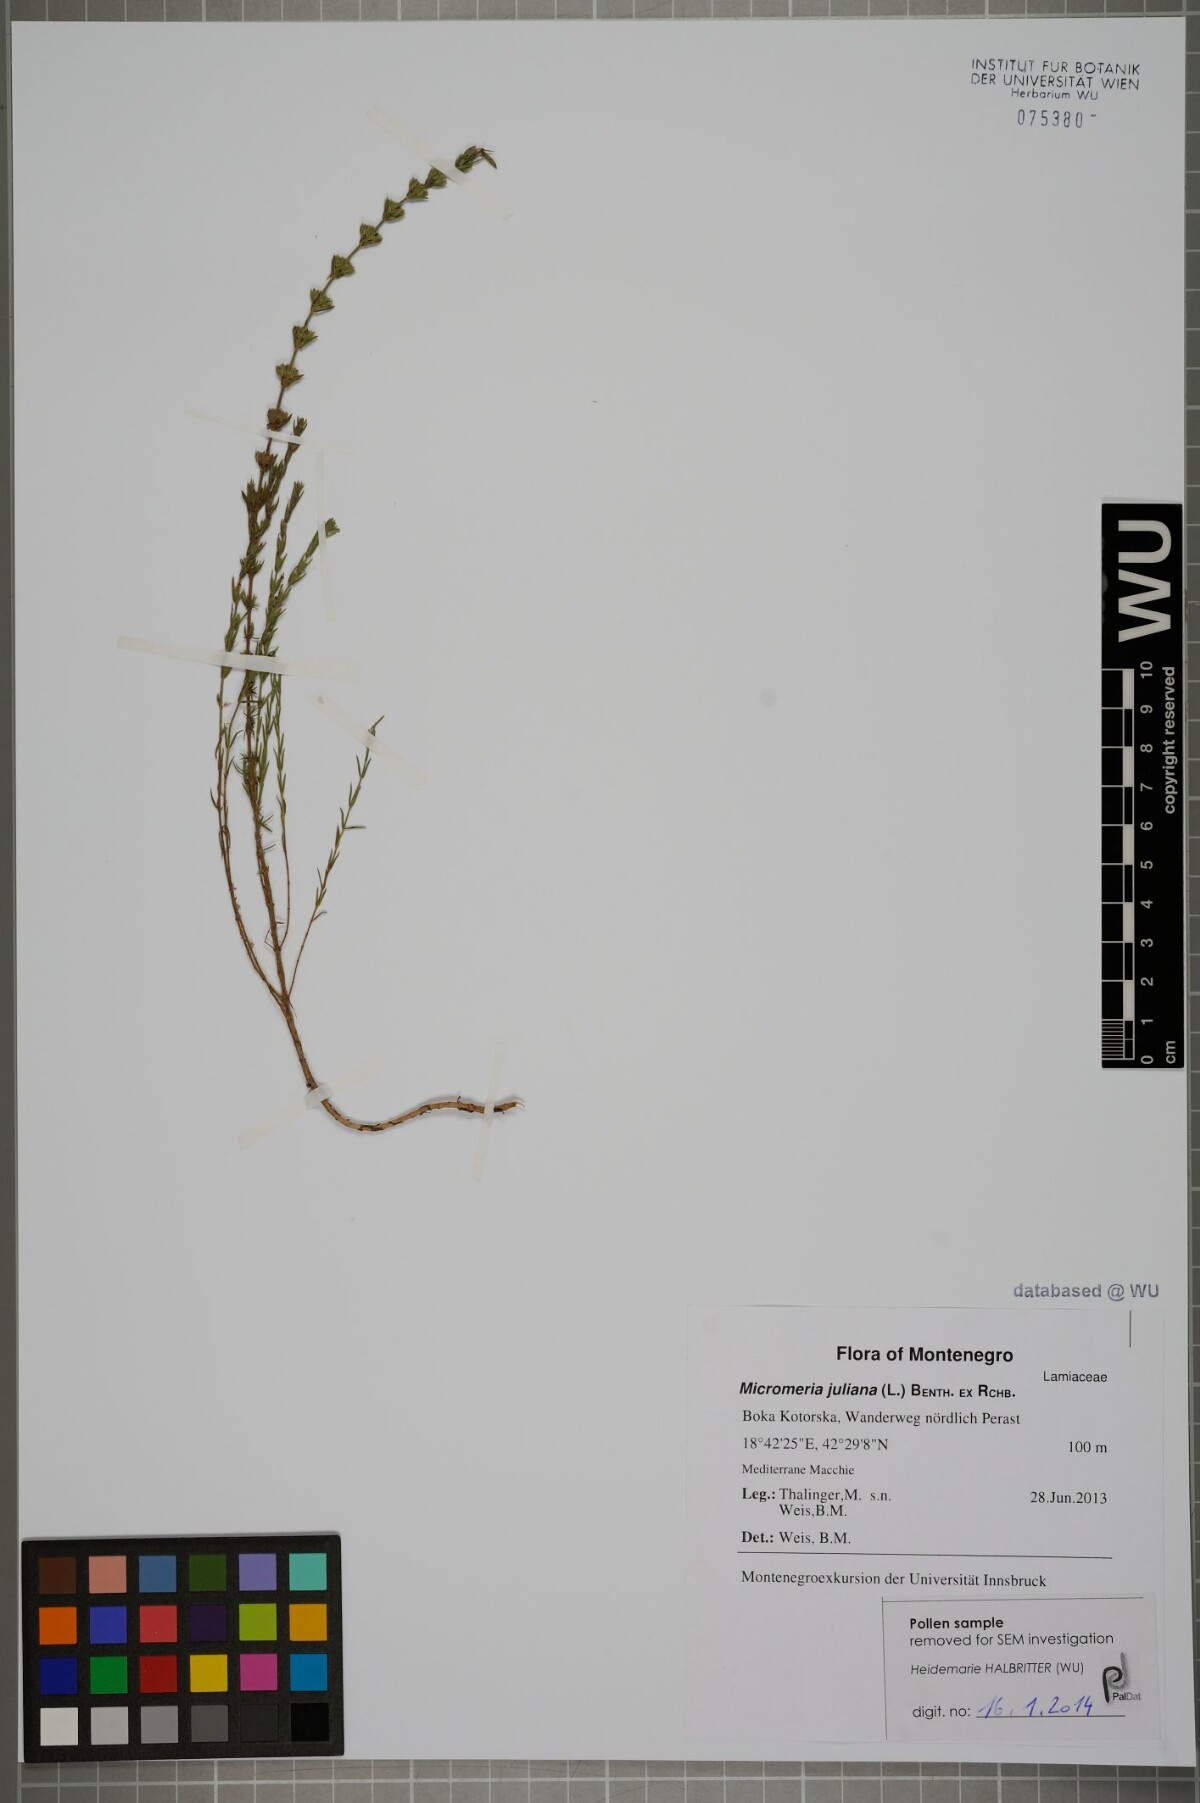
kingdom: Plantae
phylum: Tracheophyta
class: Magnoliopsida
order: Lamiales
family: Lamiaceae
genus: Micromeria
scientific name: Micromeria juliana
